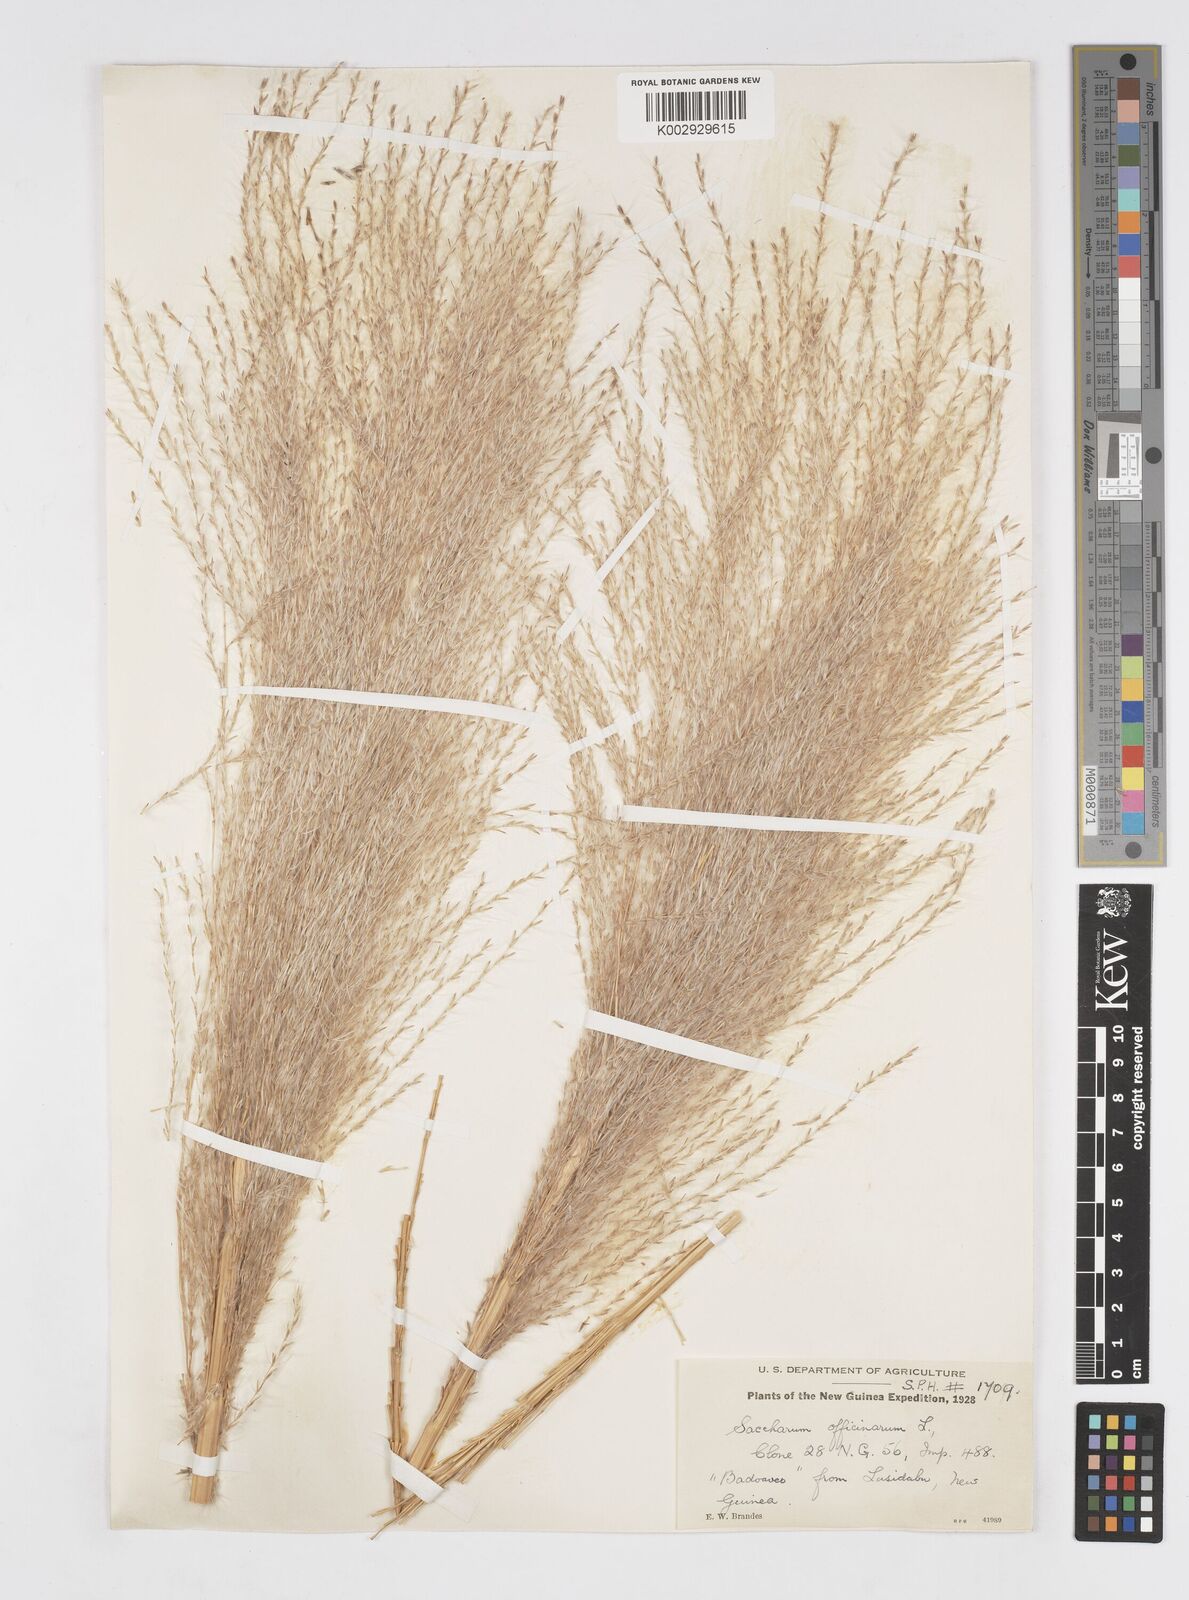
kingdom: Plantae
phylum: Tracheophyta
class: Liliopsida
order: Poales
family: Poaceae
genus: Saccharum
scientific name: Saccharum officinarum
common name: Sugarcane
